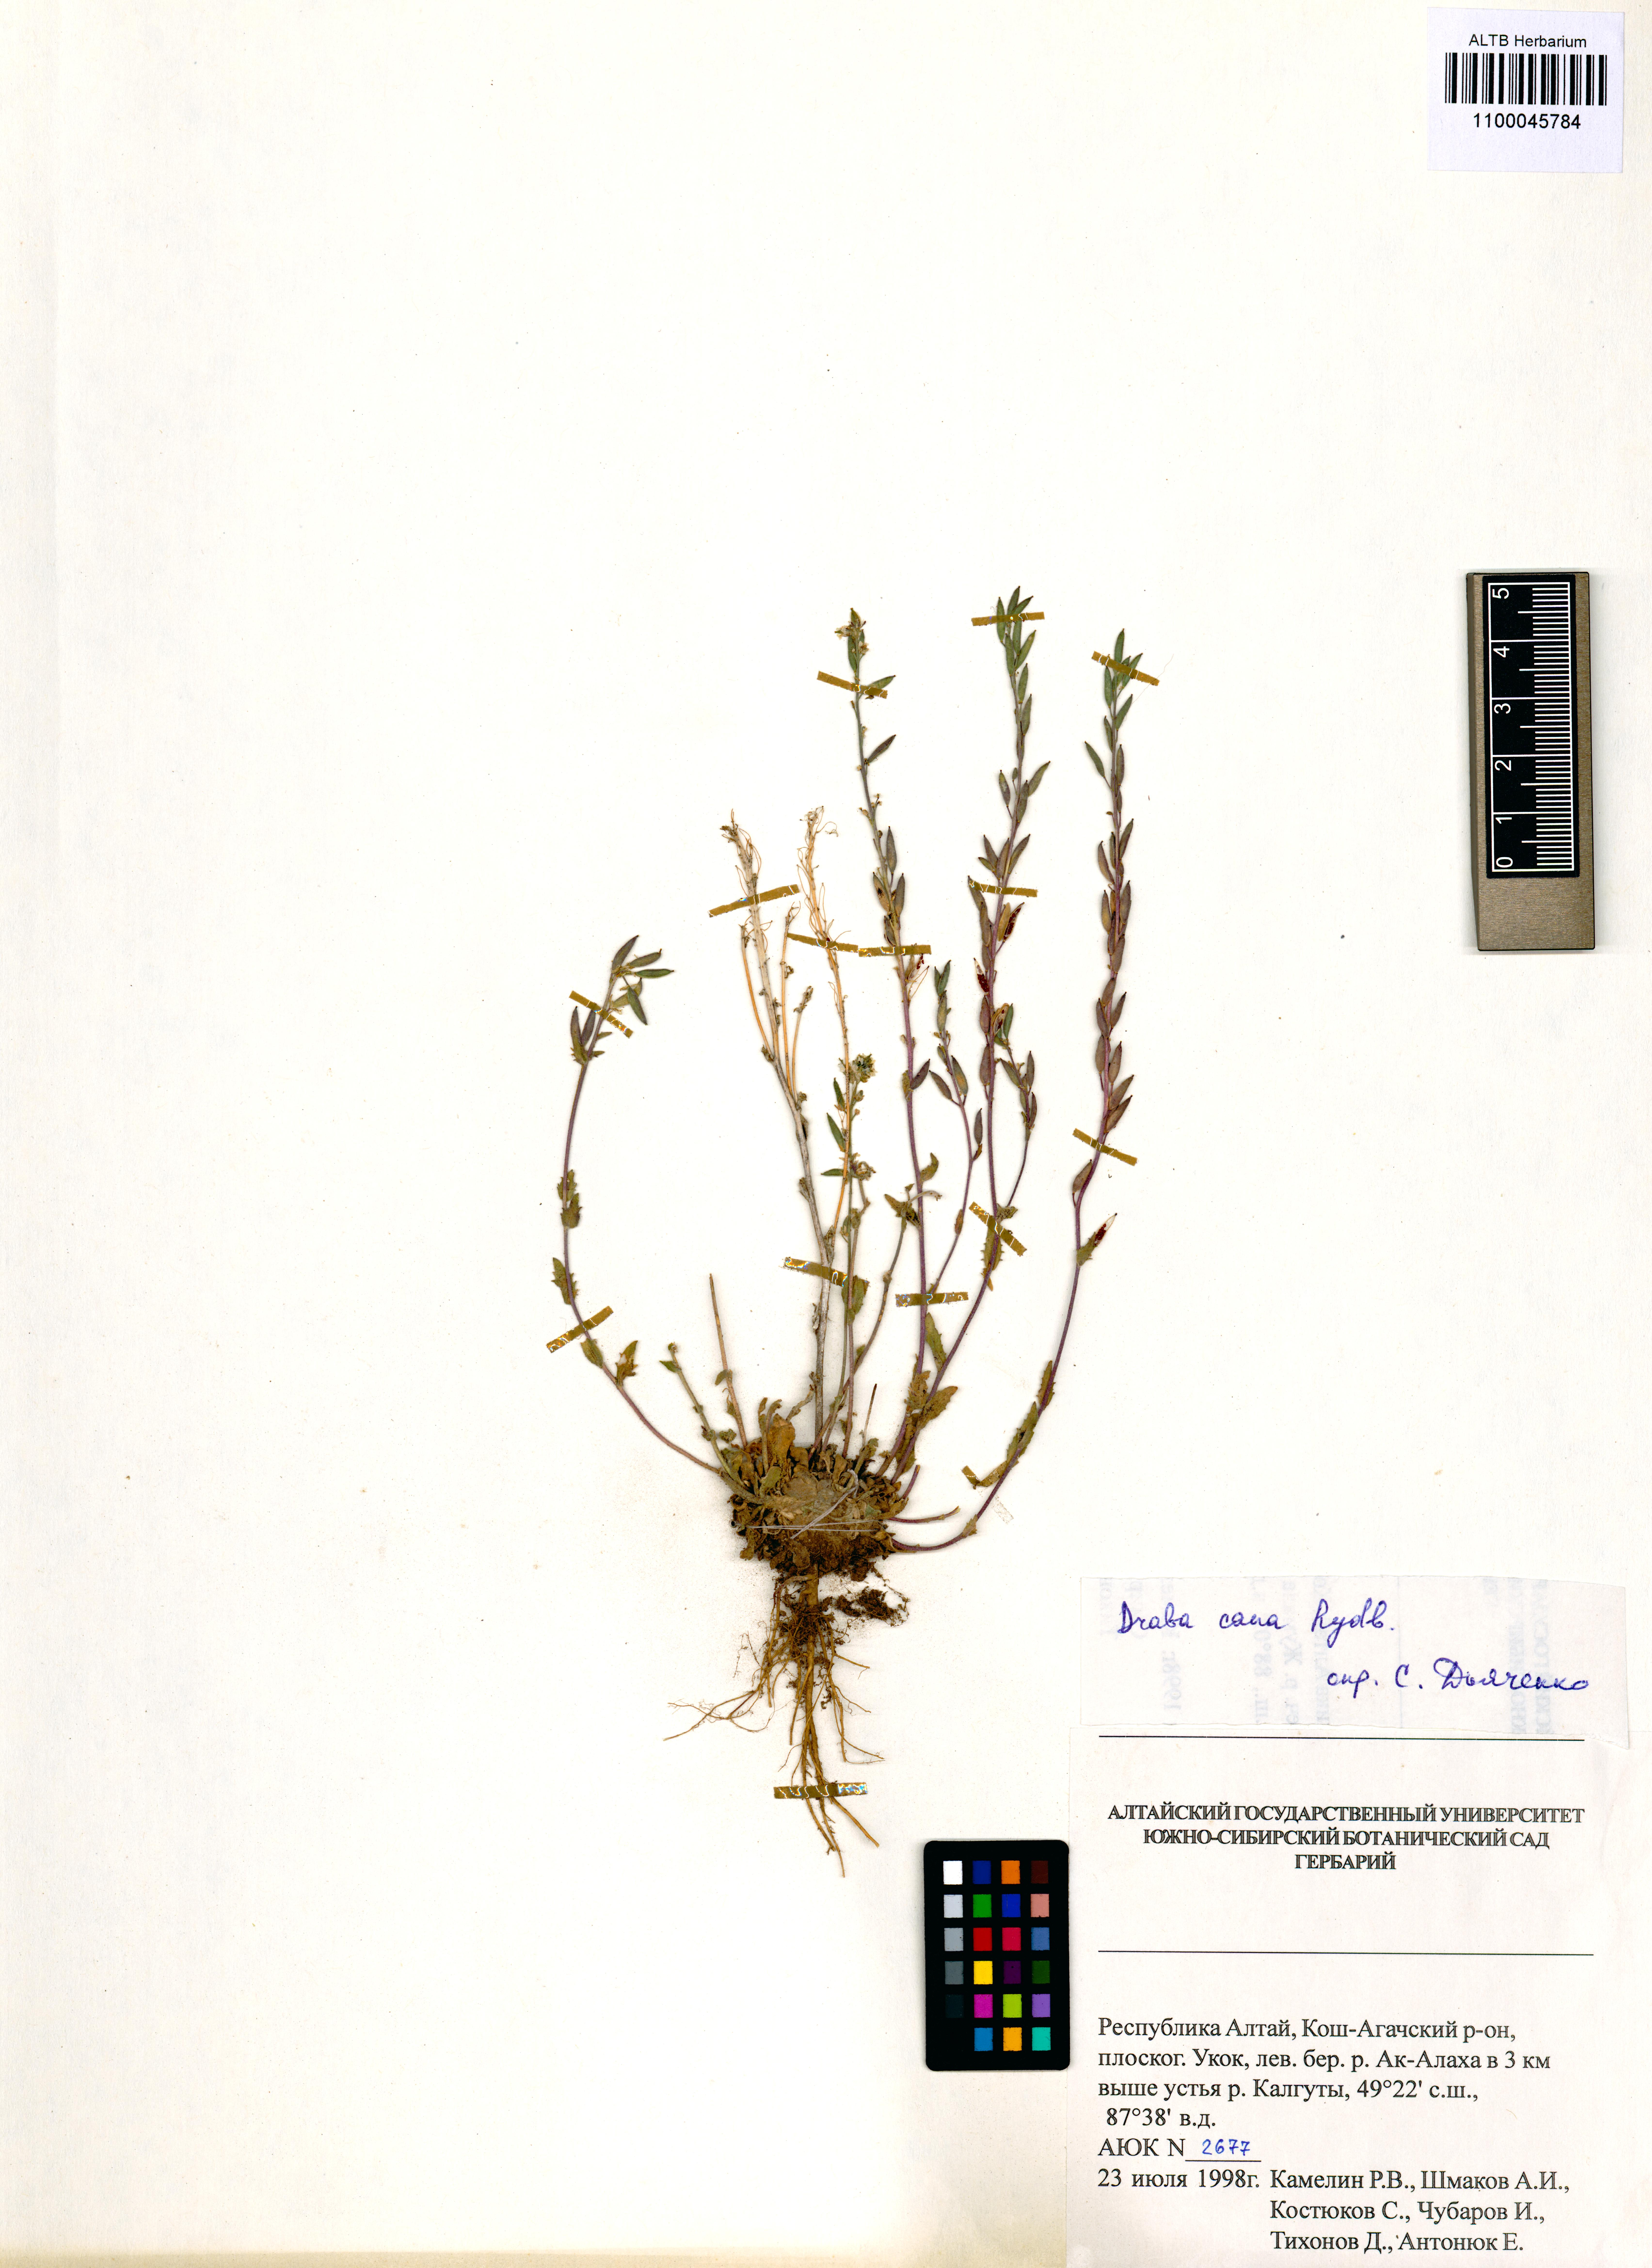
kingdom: Plantae
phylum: Tracheophyta
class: Magnoliopsida
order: Brassicales
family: Brassicaceae
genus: Draba
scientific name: Draba cana
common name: Hoary draba
